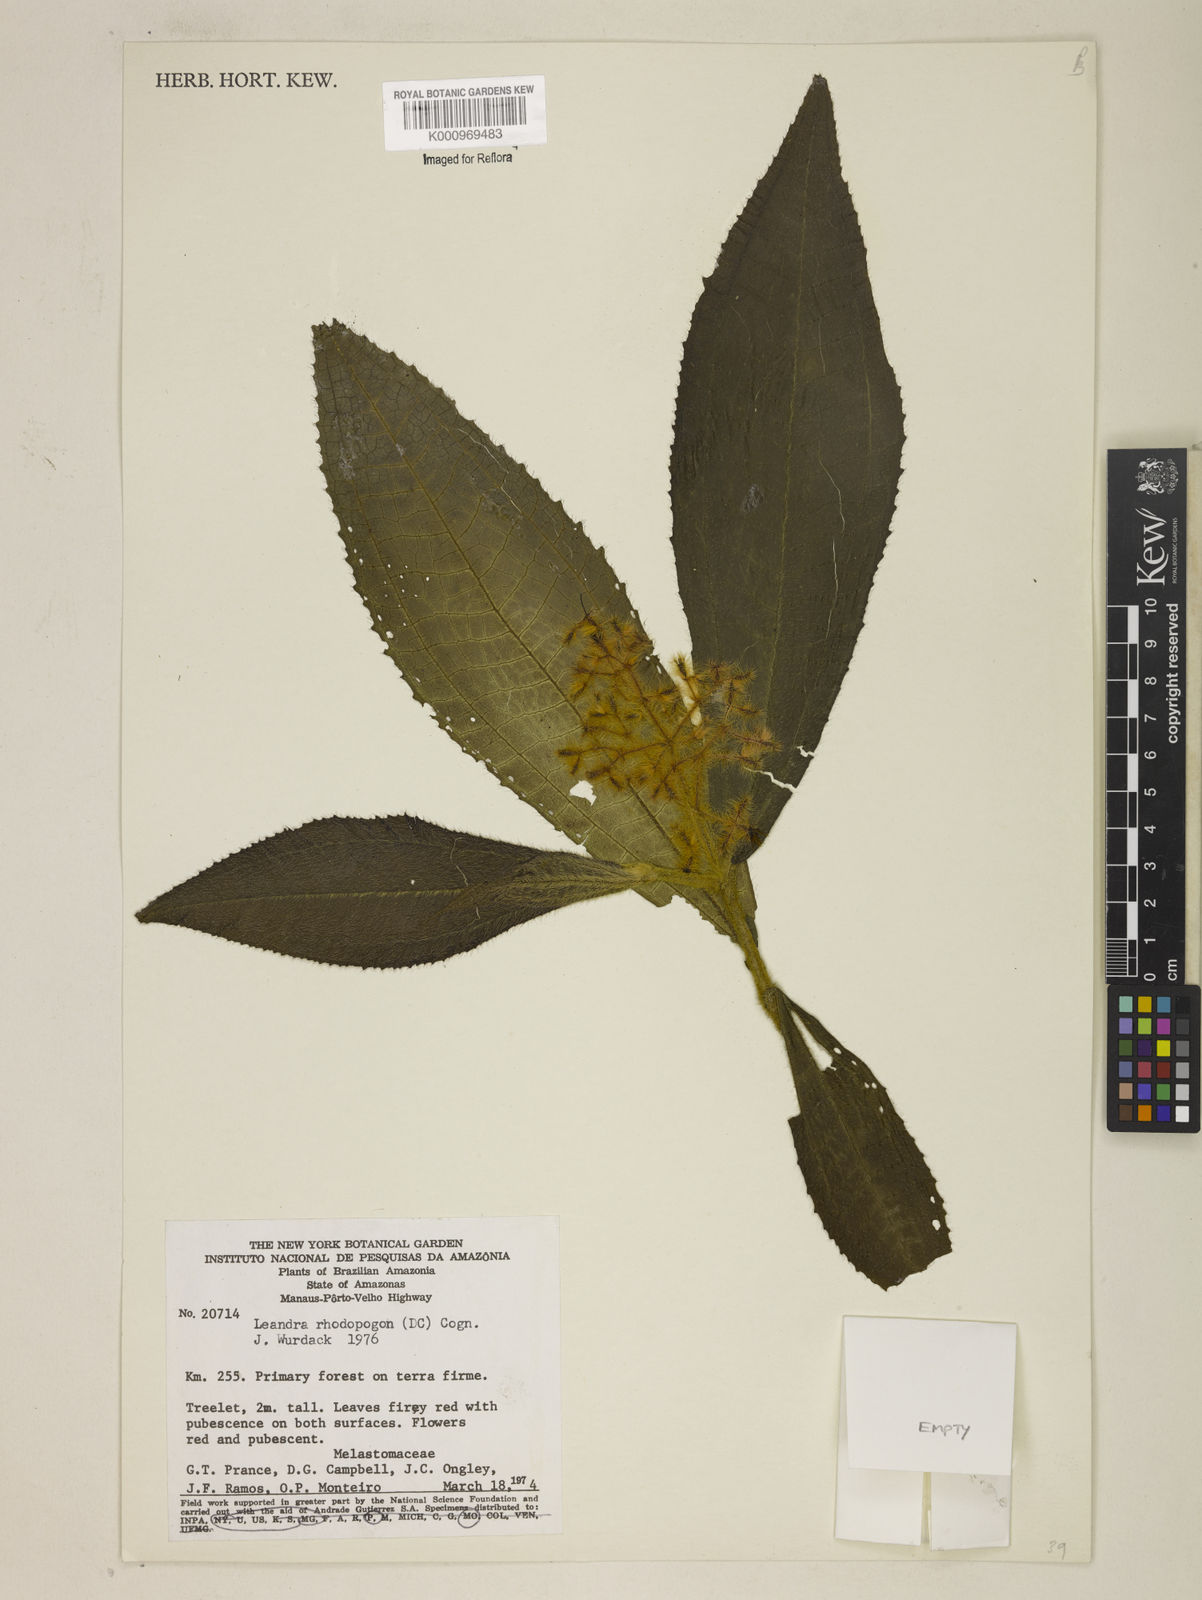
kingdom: Plantae
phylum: Tracheophyta
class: Magnoliopsida
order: Myrtales
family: Melastomataceae
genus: Miconia
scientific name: Miconia rhodopogon
